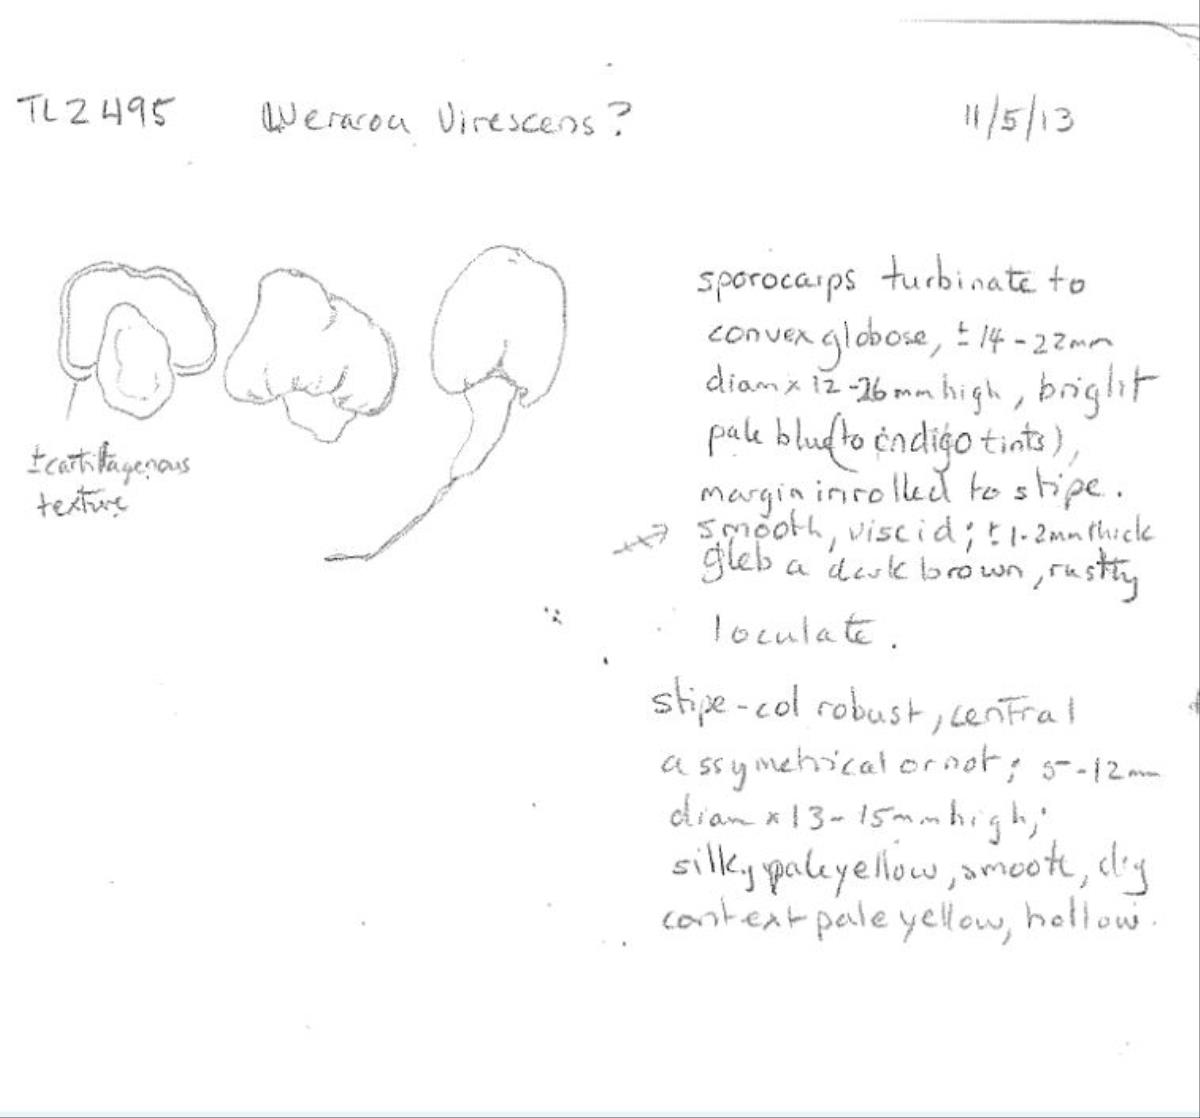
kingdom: Fungi
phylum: Basidiomycota
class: Agaricomycetes
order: Agaricales
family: Agaricaceae
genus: Clavogaster
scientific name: Clavogaster virescens
